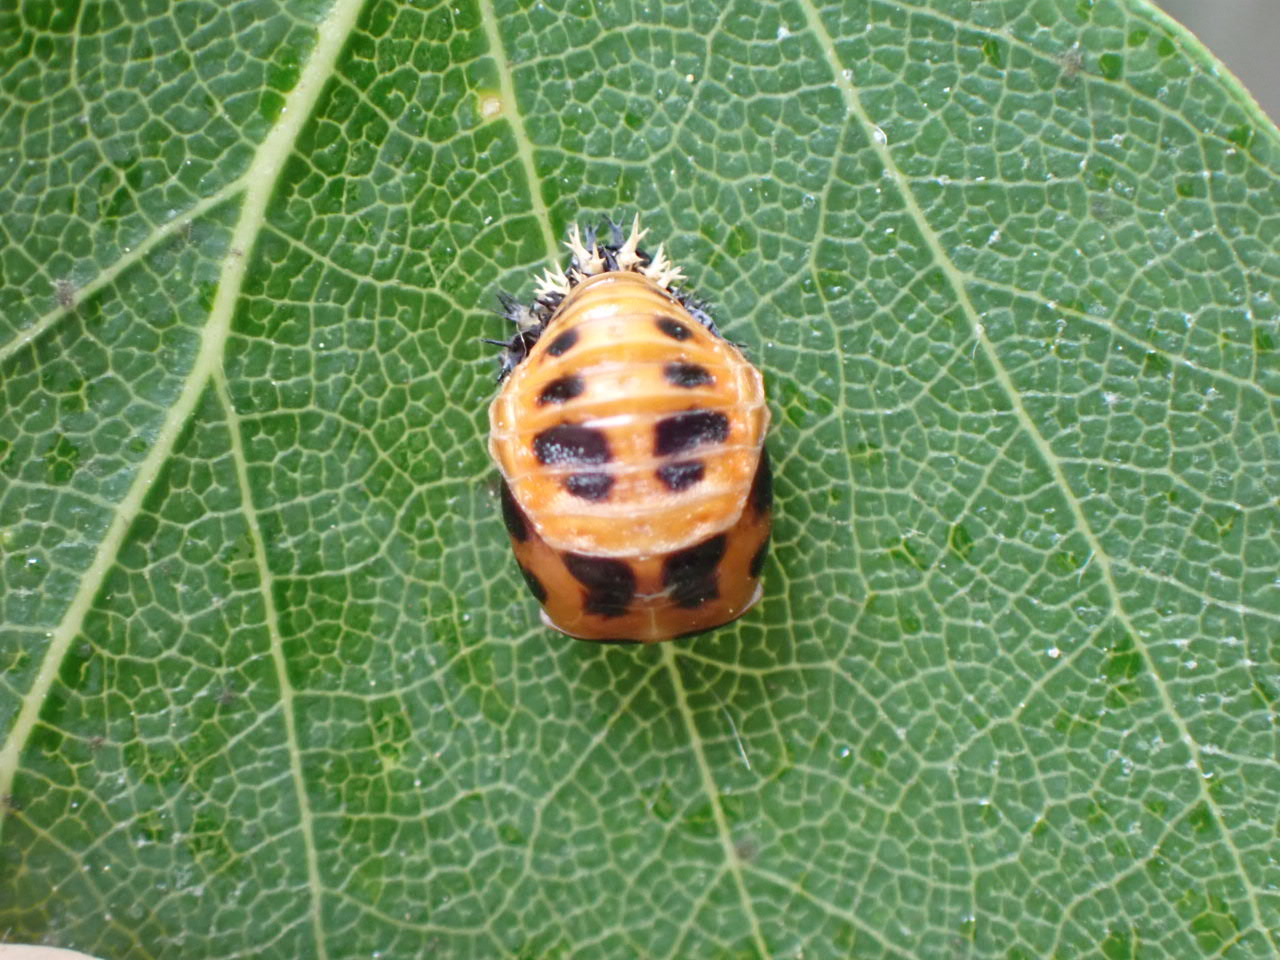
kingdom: Animalia
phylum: Arthropoda
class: Insecta
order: Coleoptera
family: Coccinellidae
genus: Harmonia
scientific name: Harmonia axyridis
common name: Harlekinmariehøne
